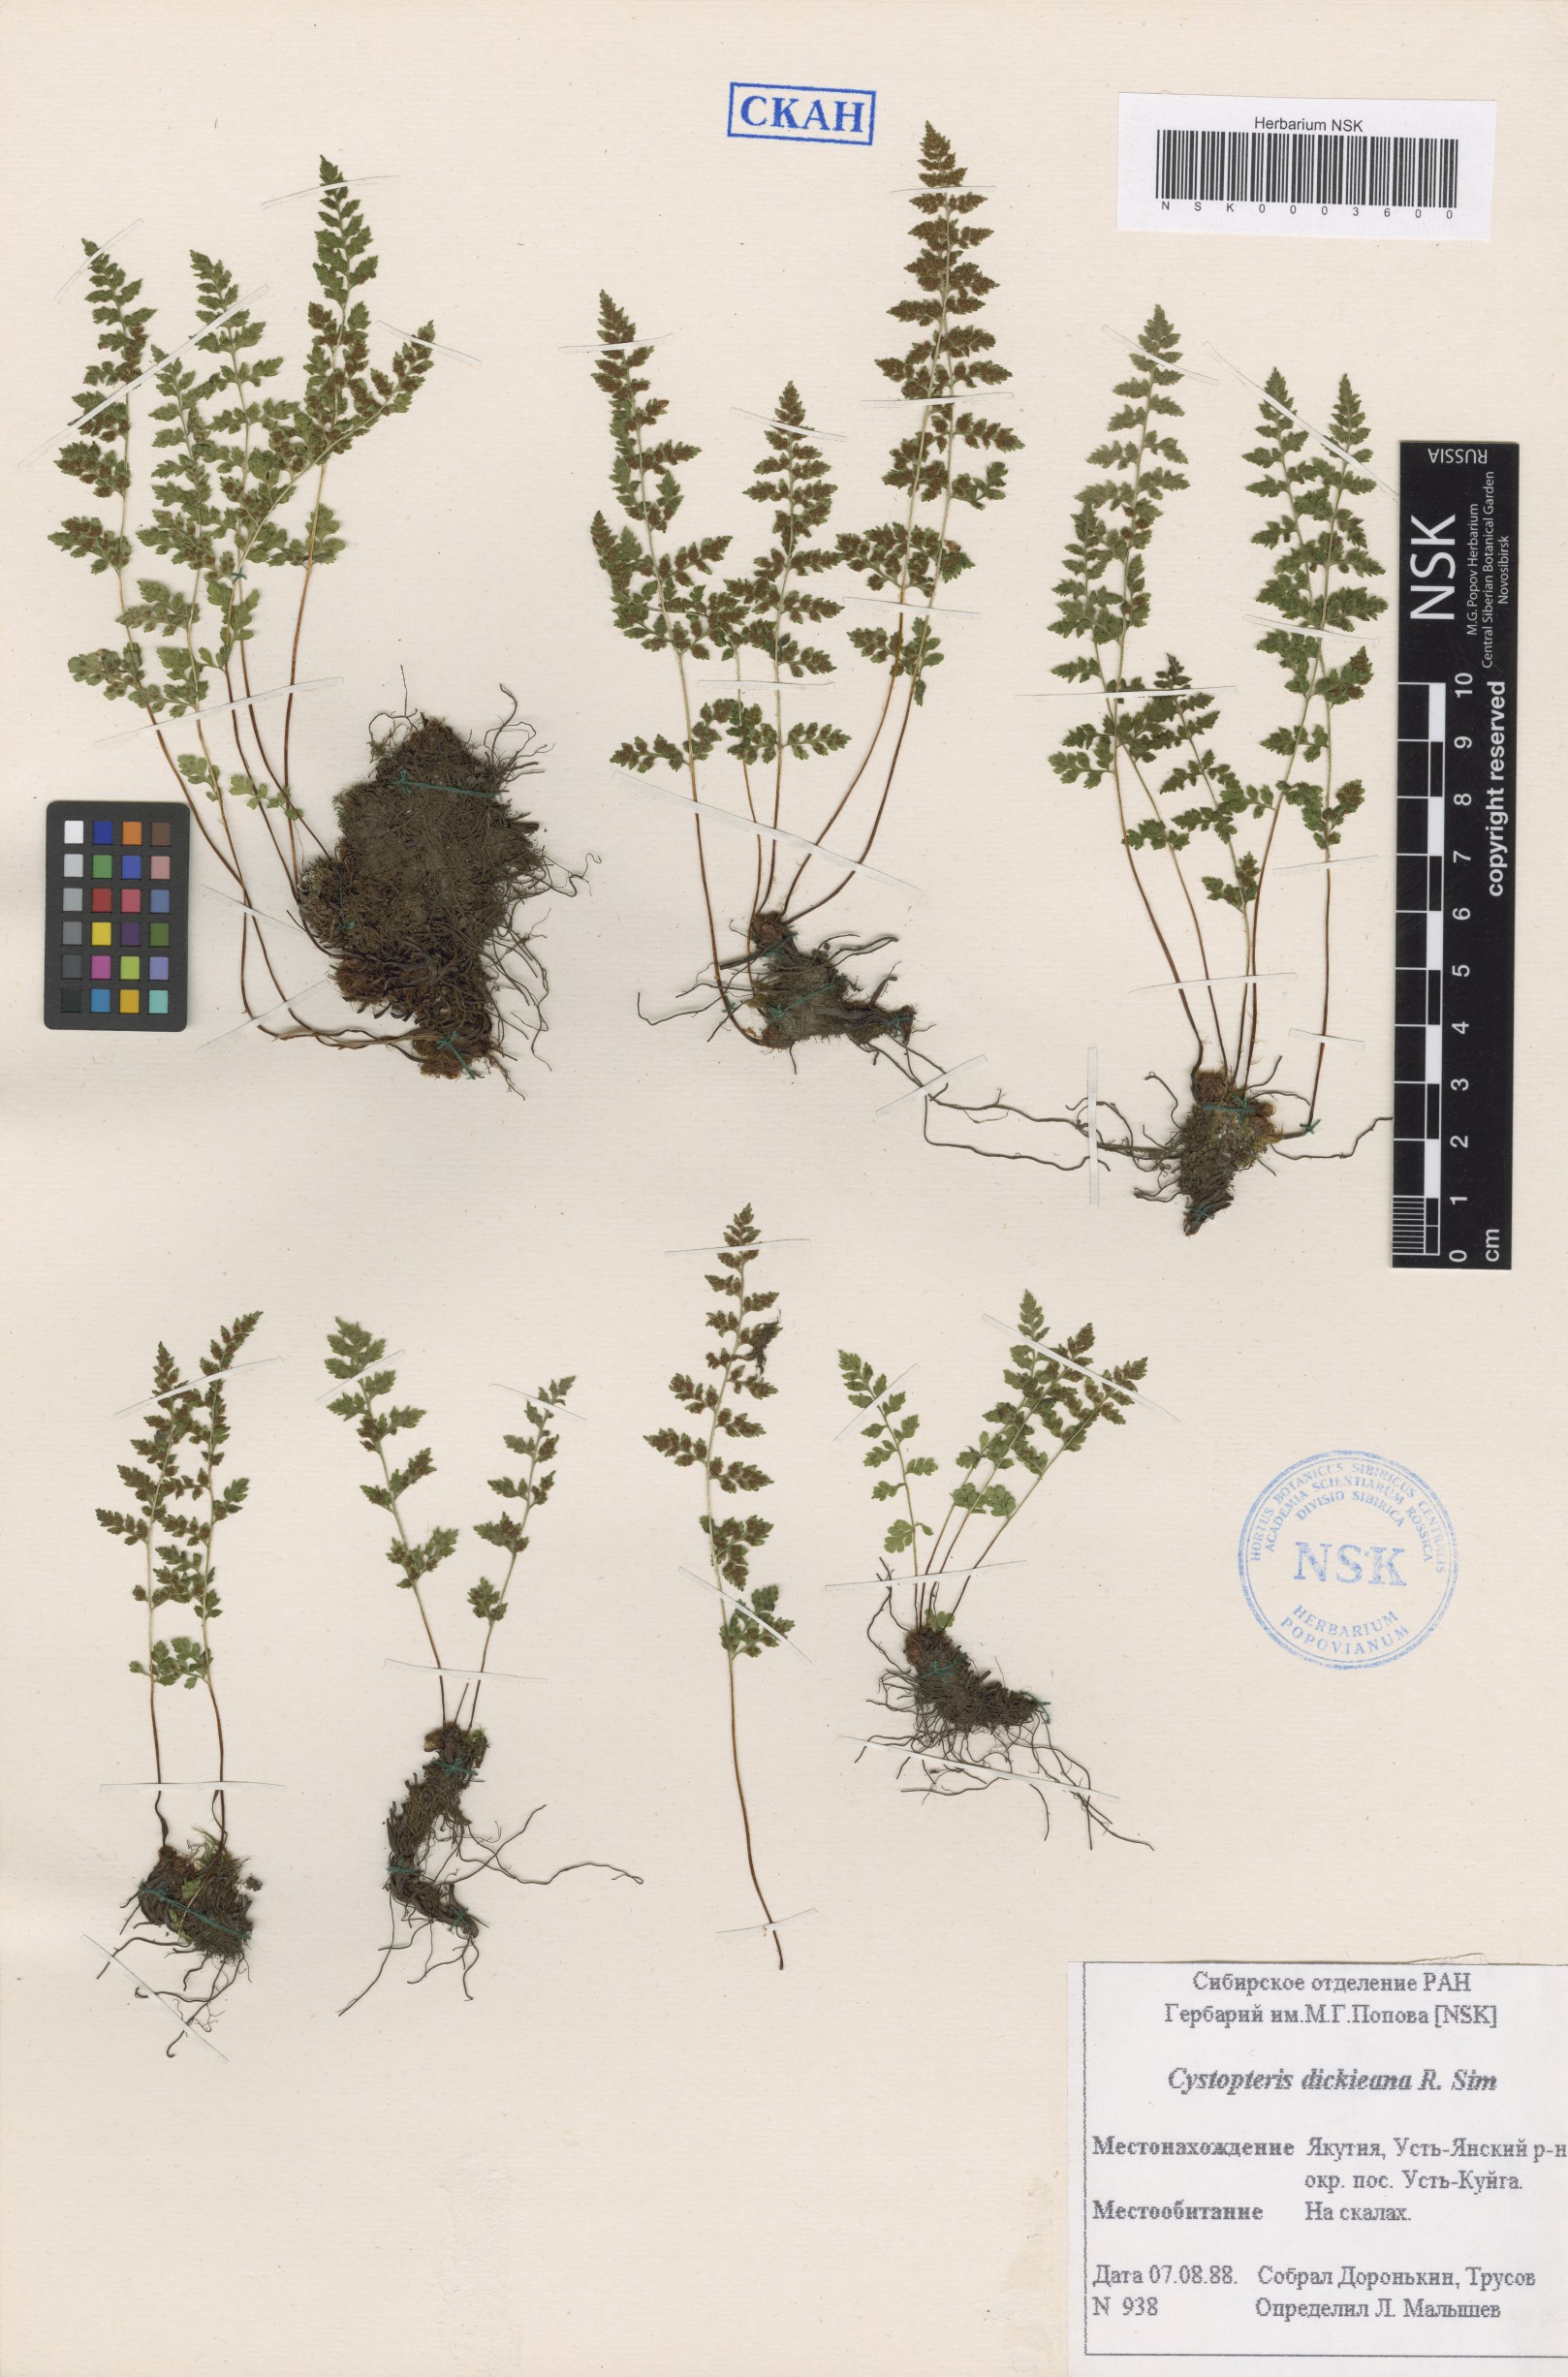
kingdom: Plantae
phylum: Tracheophyta
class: Polypodiopsida
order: Polypodiales
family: Cystopteridaceae
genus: Cystopteris
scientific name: Cystopteris dickieana
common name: Dickie's bladder-fern
